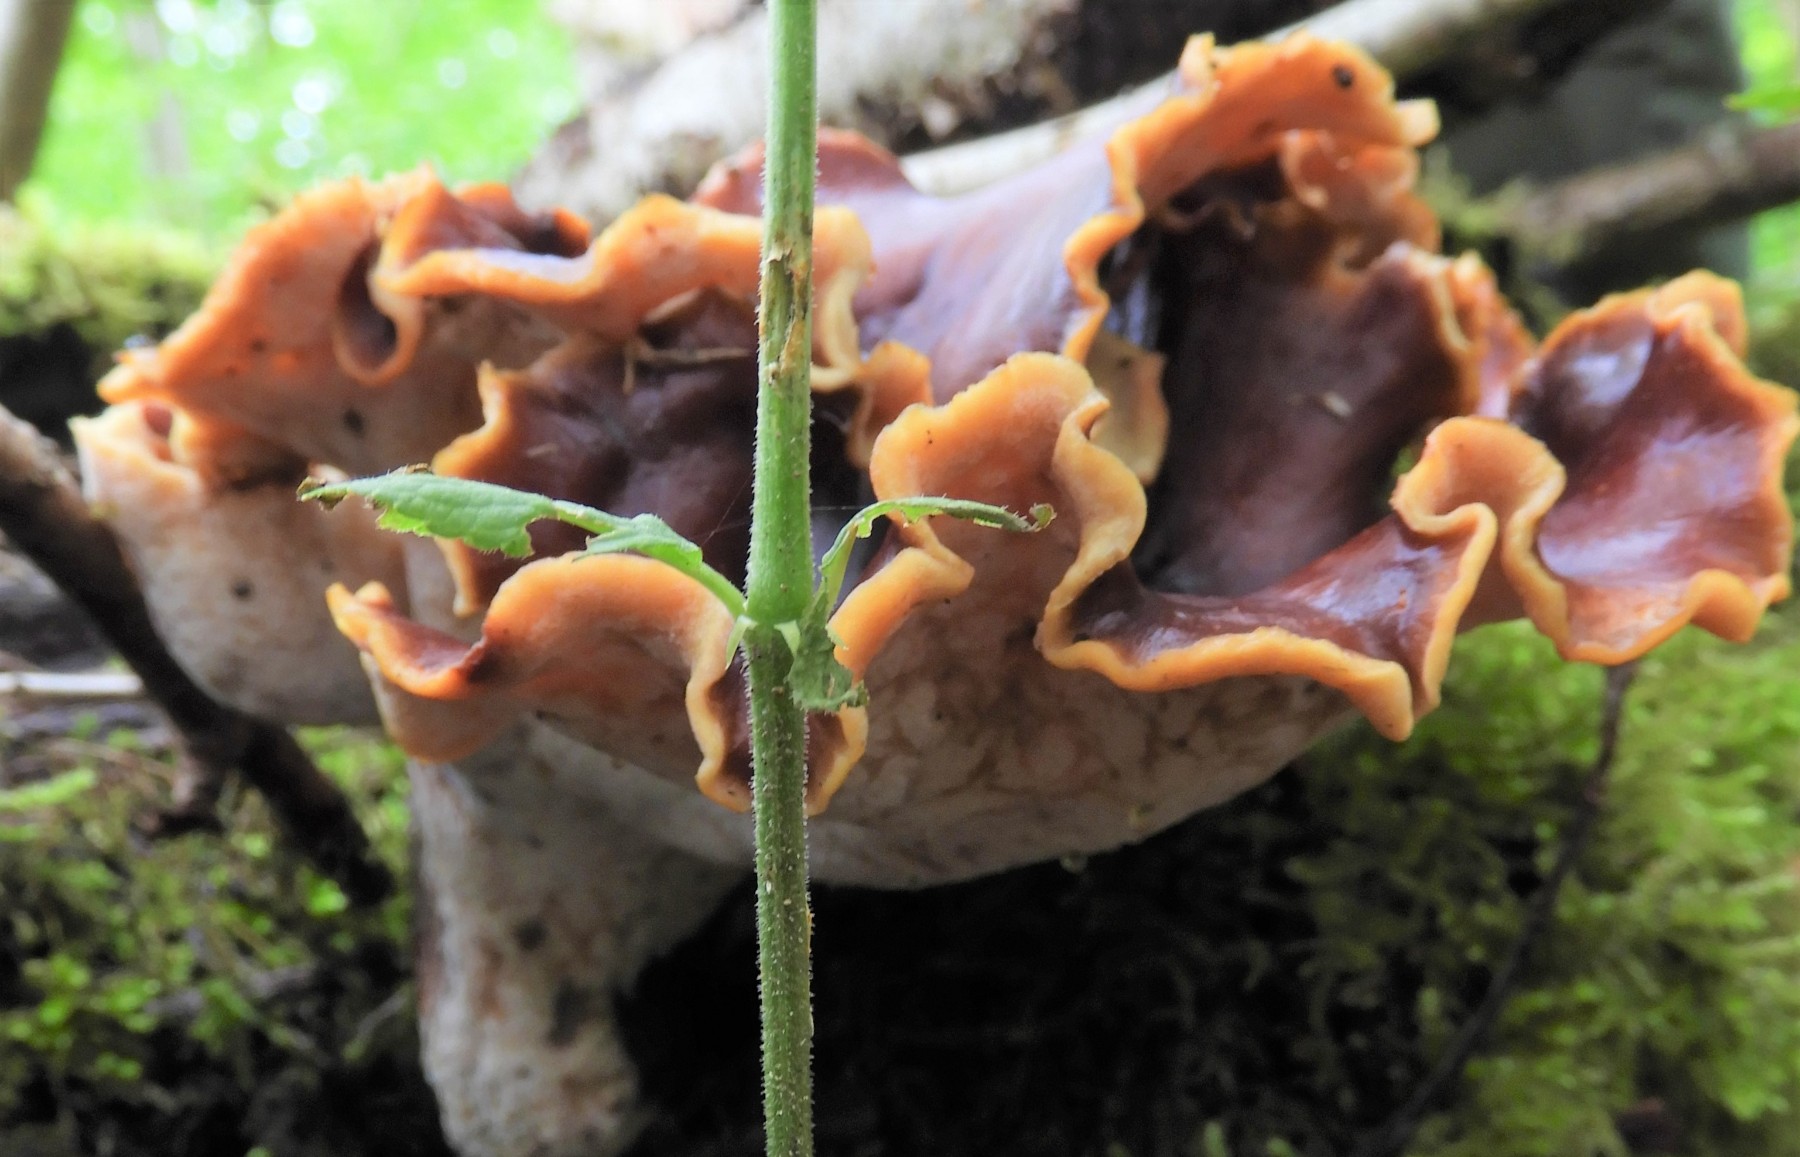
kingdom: Fungi
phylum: Basidiomycota
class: Agaricomycetes
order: Polyporales
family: Polyporaceae
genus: Picipes
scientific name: Picipes badius
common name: kastaniebrun stilkporesvamp
